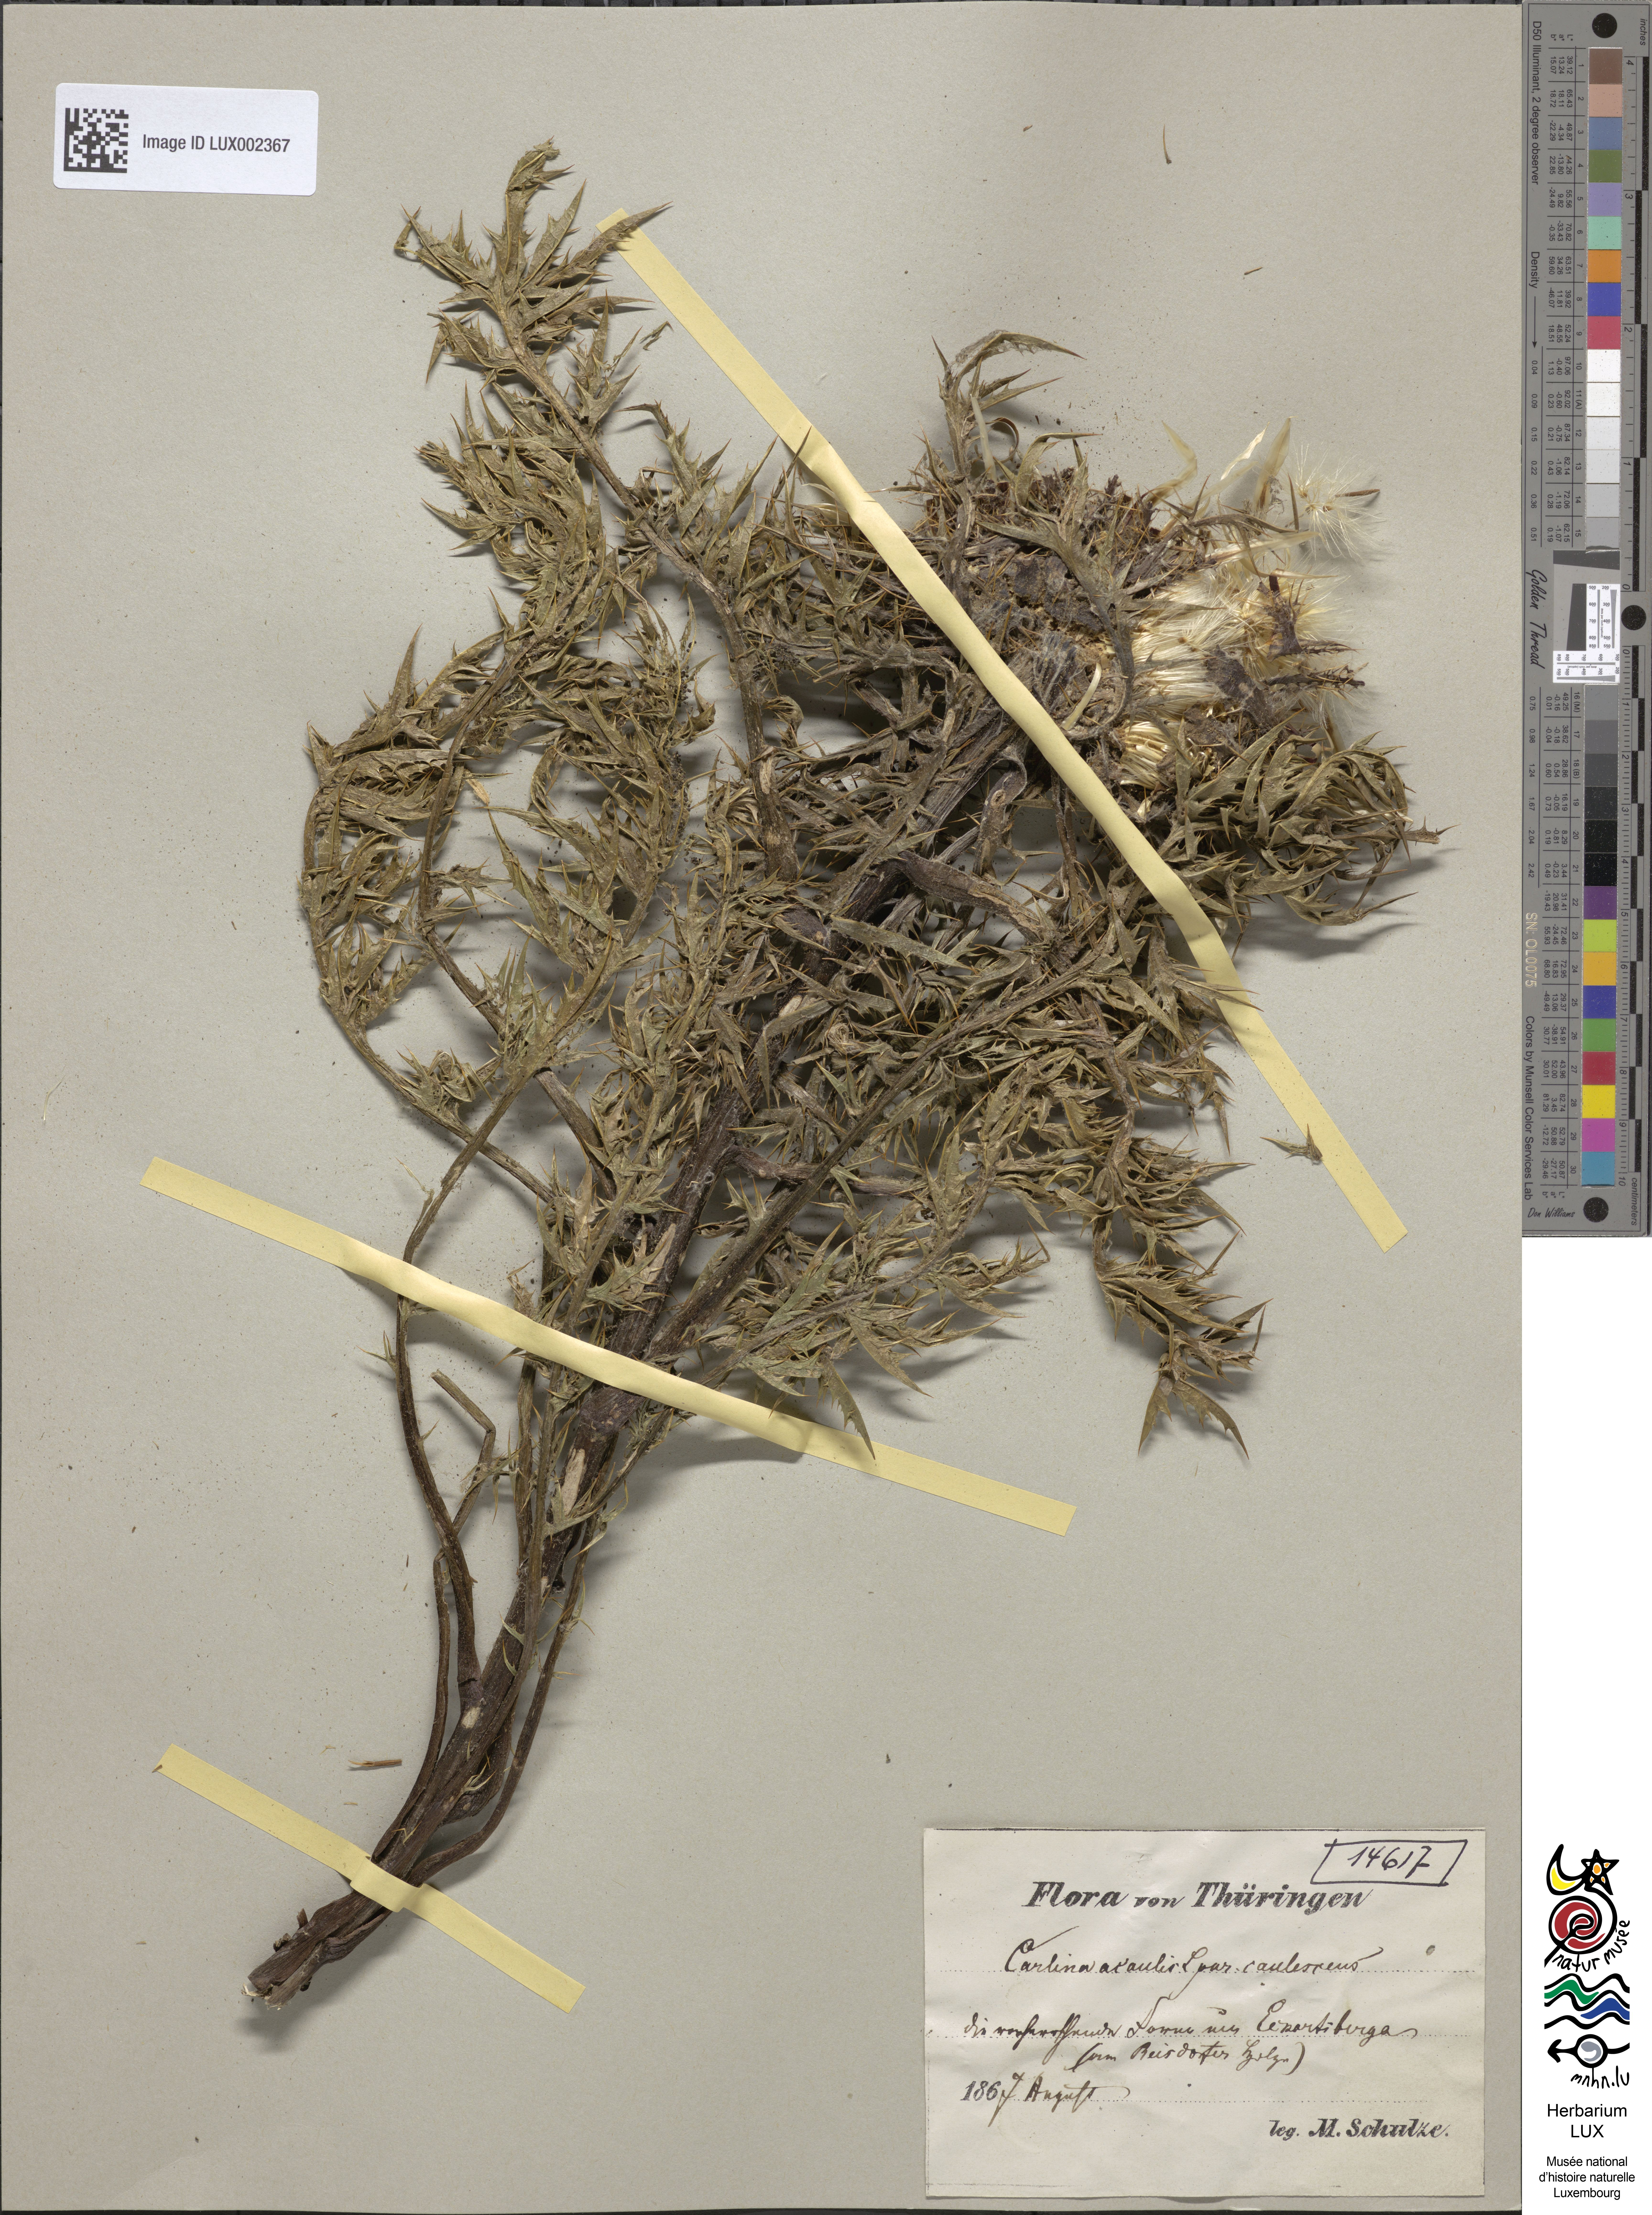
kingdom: Plantae
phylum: Tracheophyta
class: Magnoliopsida
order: Asterales
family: Asteraceae
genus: Carlina
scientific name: Carlina acaulis
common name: Stemless carline thistle
